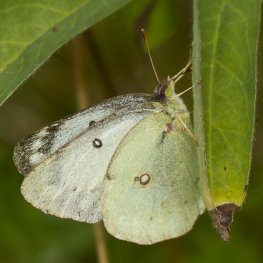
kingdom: Animalia
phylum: Arthropoda
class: Insecta
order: Lepidoptera
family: Pieridae
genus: Colias
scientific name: Colias philodice
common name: Clouded Sulphur
